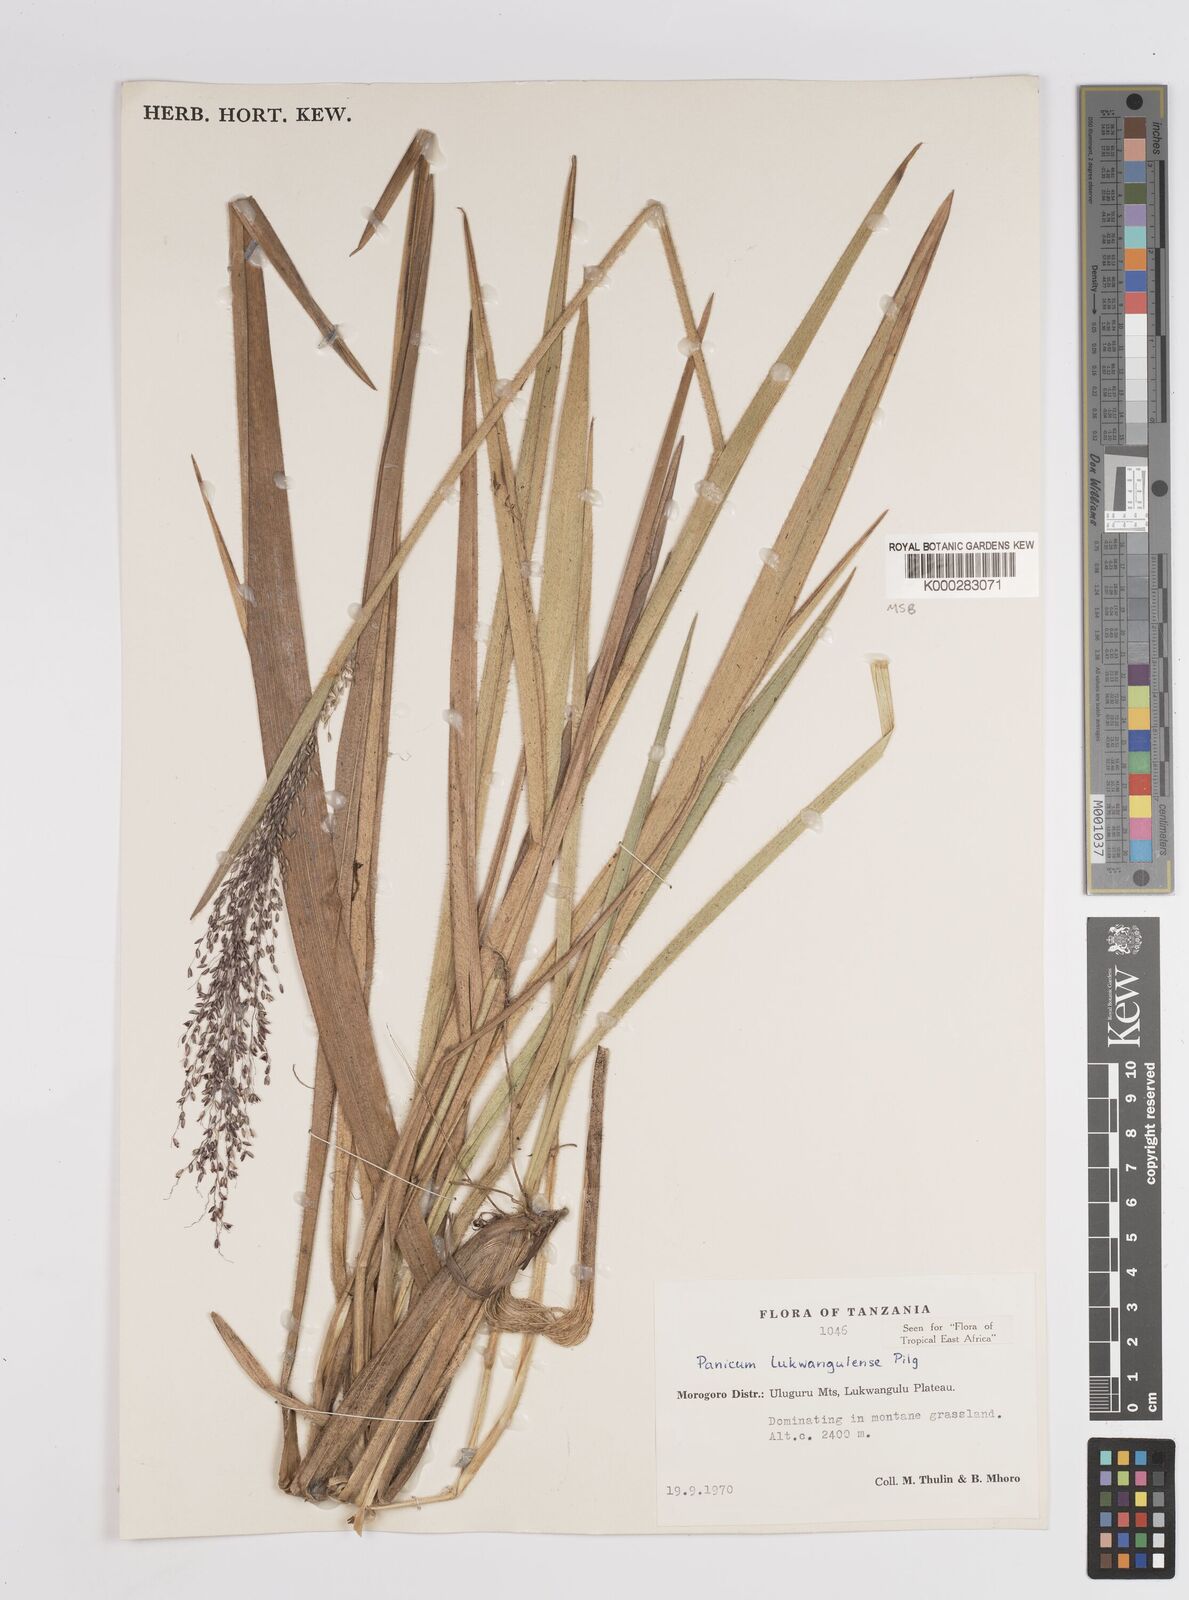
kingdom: Plantae
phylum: Tracheophyta
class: Liliopsida
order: Poales
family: Poaceae
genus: Adenochloa
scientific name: Adenochloa lukwangulense
